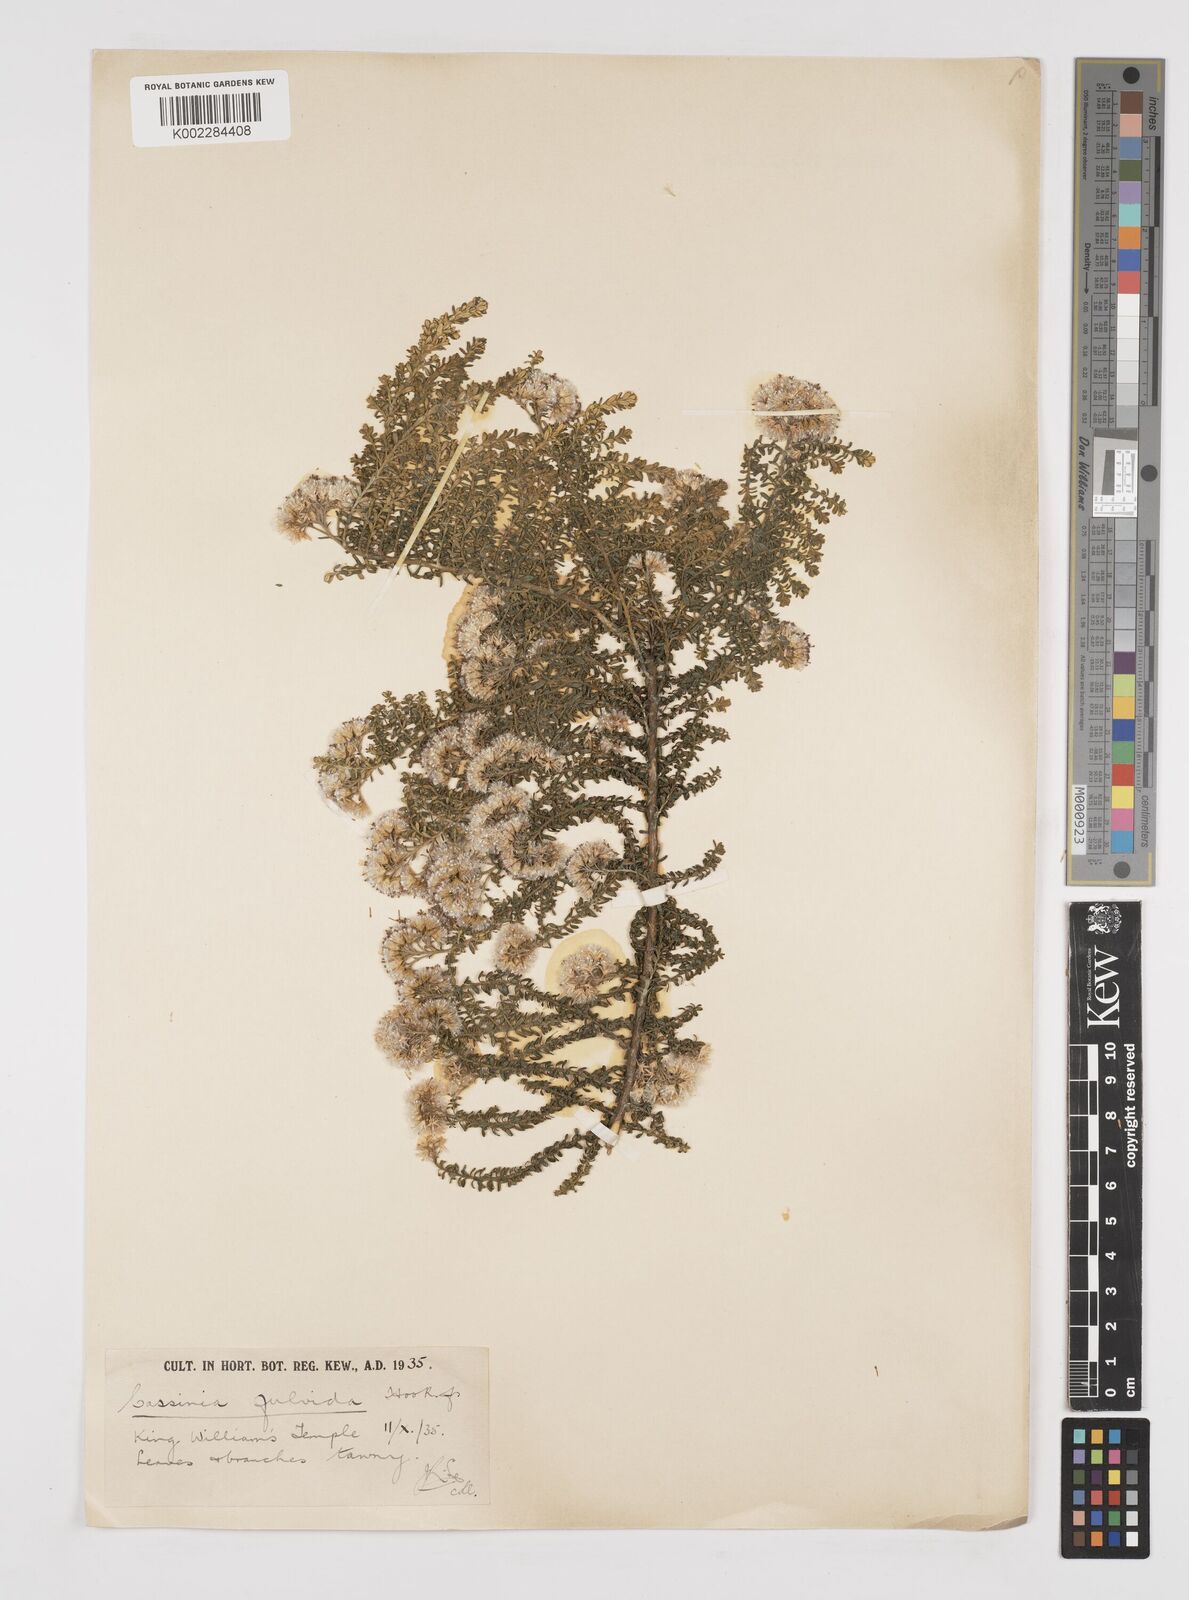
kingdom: Plantae
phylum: Tracheophyta
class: Magnoliopsida
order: Asterales
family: Asteraceae
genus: Ozothamnus
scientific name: Ozothamnus leptophyllus
